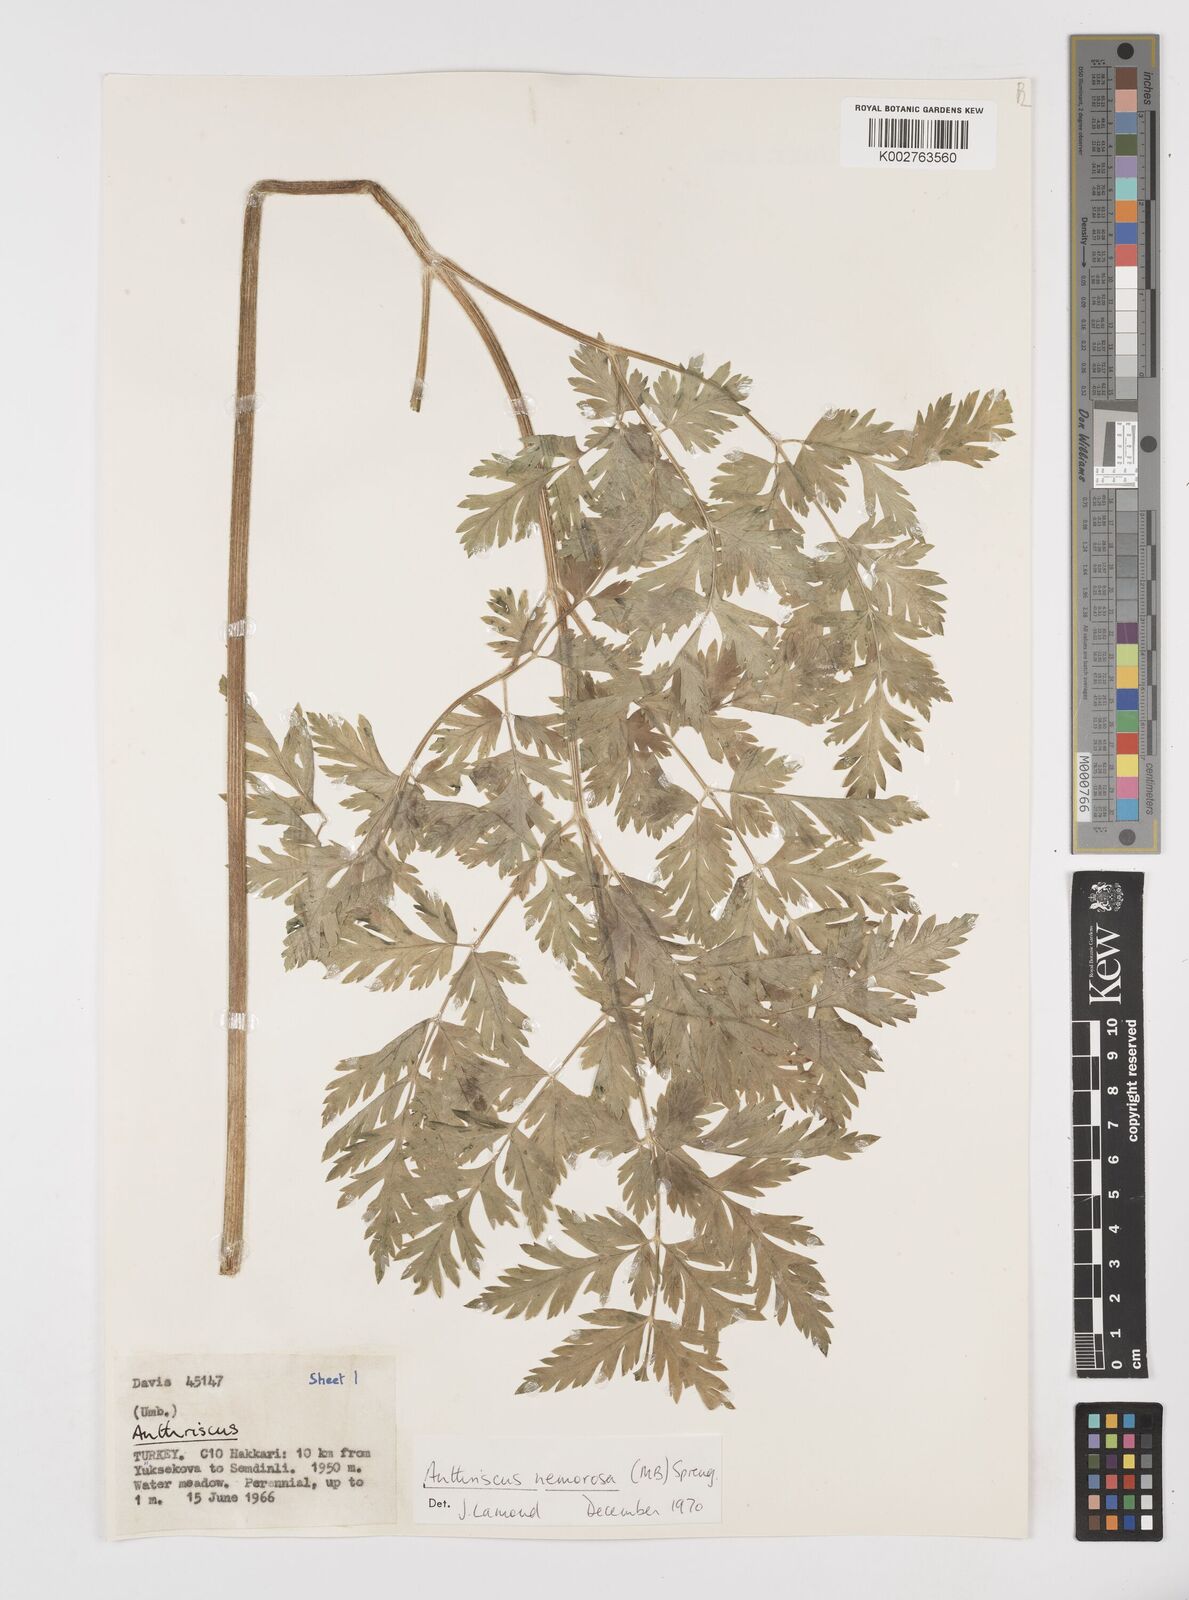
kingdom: Plantae
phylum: Tracheophyta
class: Magnoliopsida
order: Apiales
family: Apiaceae
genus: Anthriscus
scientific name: Anthriscus sylvestris
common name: Cow parsley
